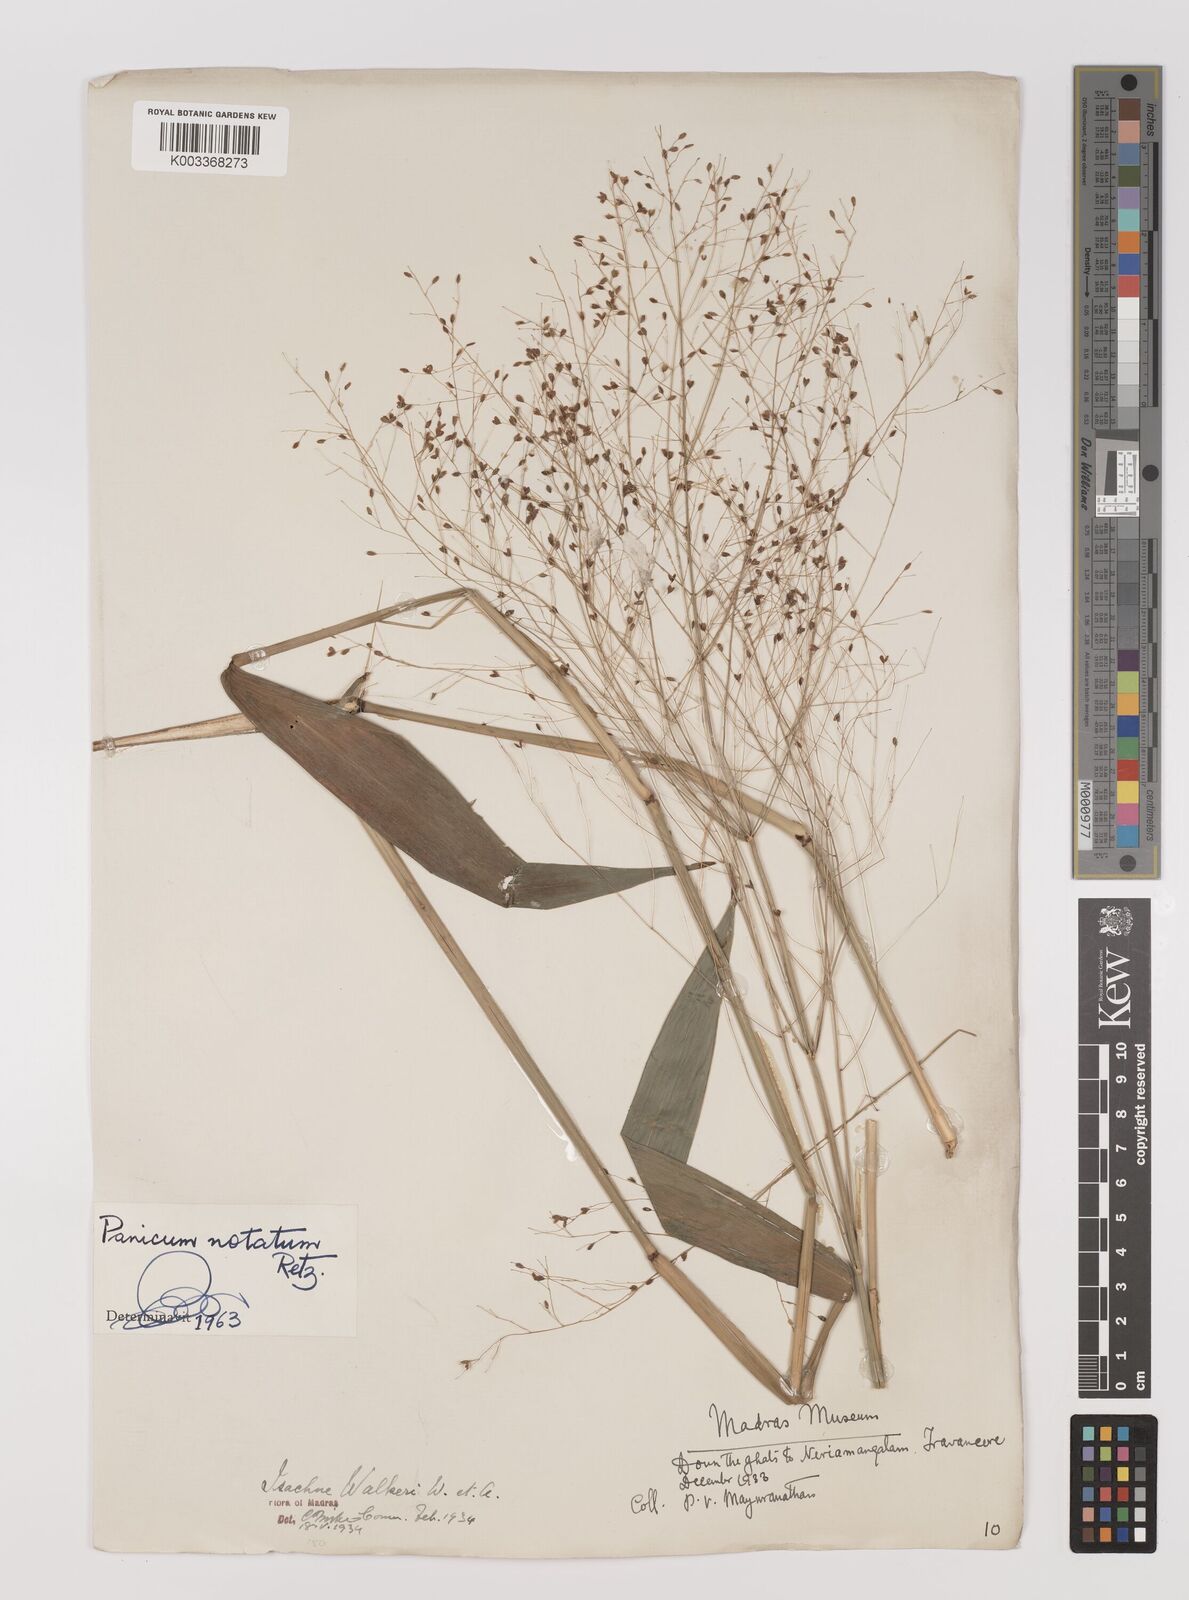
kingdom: Plantae
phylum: Tracheophyta
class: Liliopsida
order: Poales
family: Poaceae
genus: Panicum
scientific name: Panicum notatum
